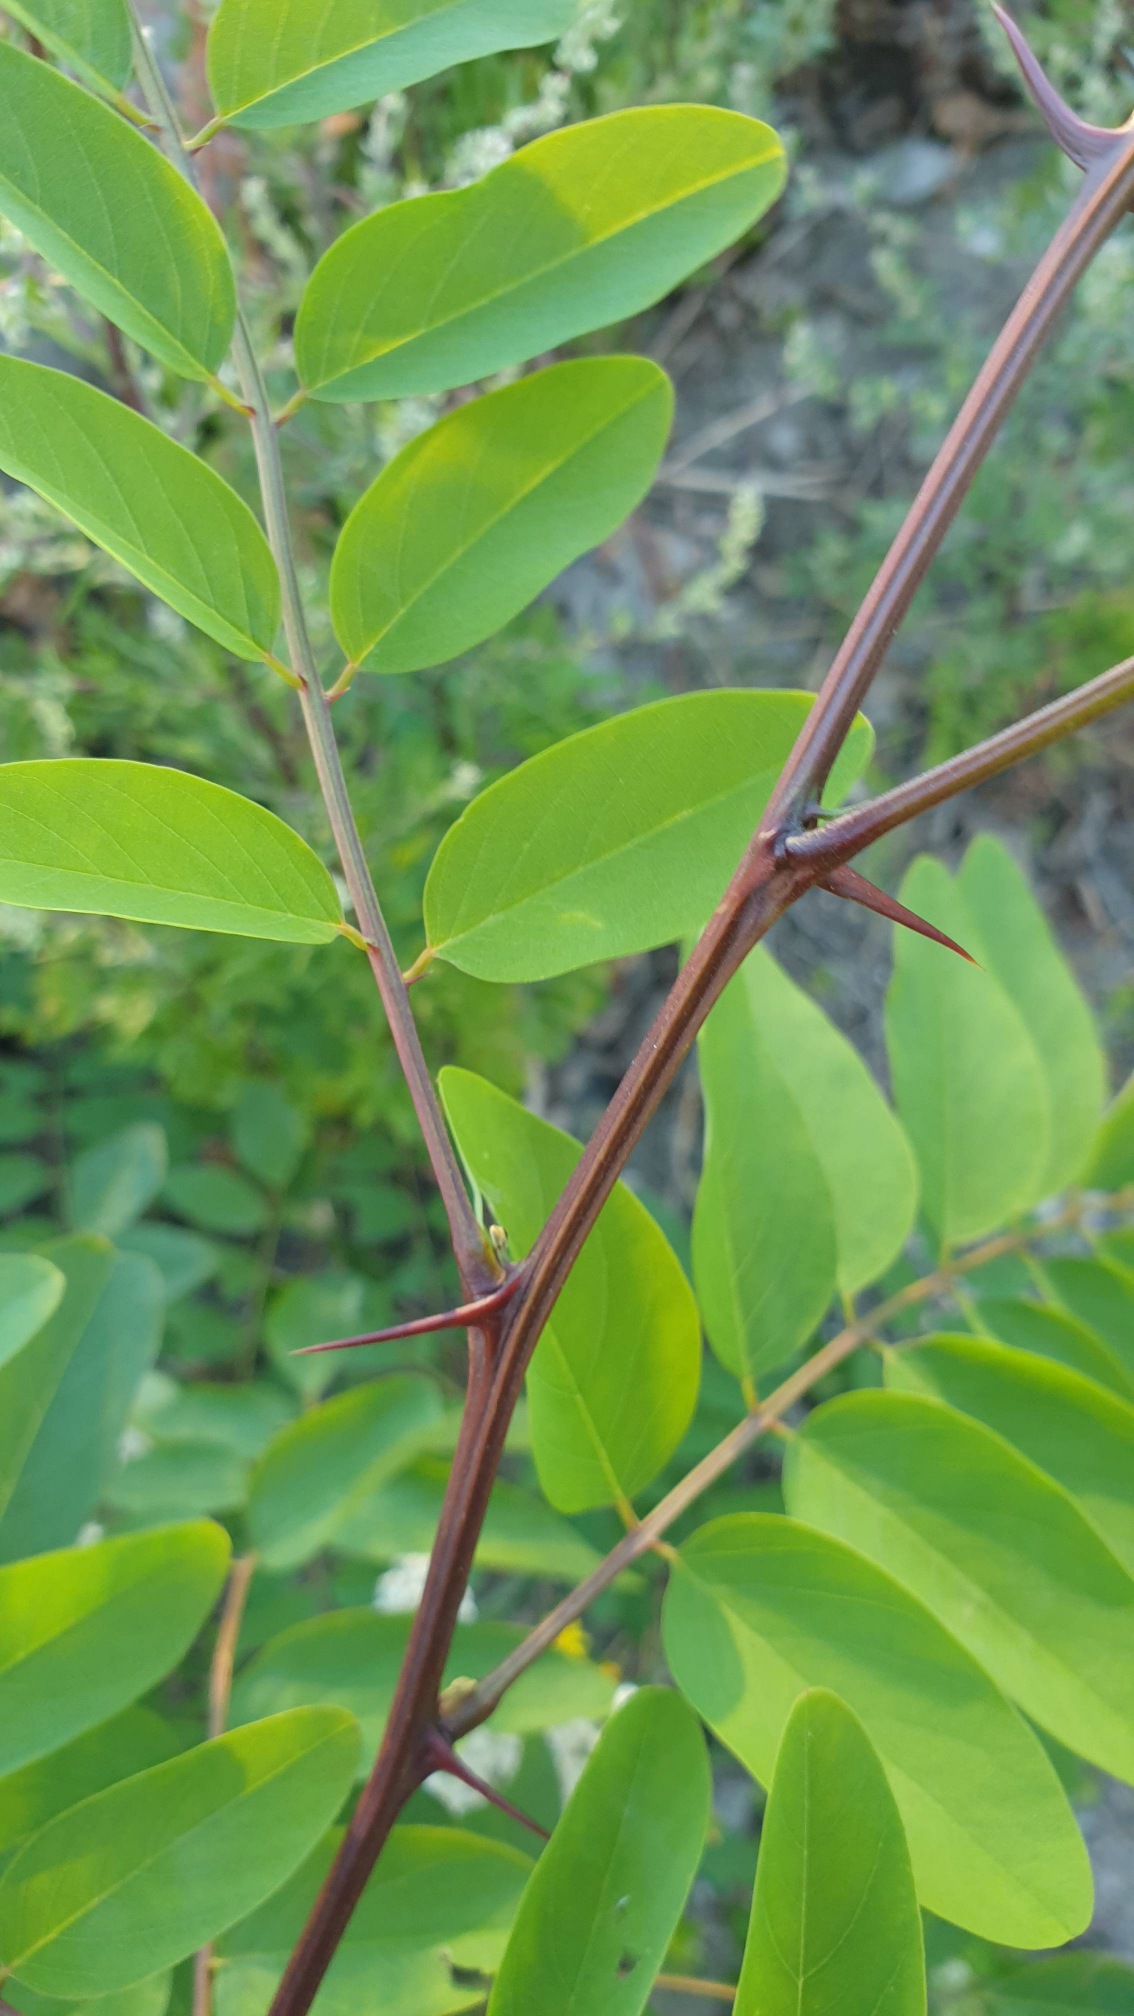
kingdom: Plantae
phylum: Tracheophyta
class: Magnoliopsida
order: Fabales
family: Fabaceae
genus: Robinia
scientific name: Robinia pseudoacacia
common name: Robinie
